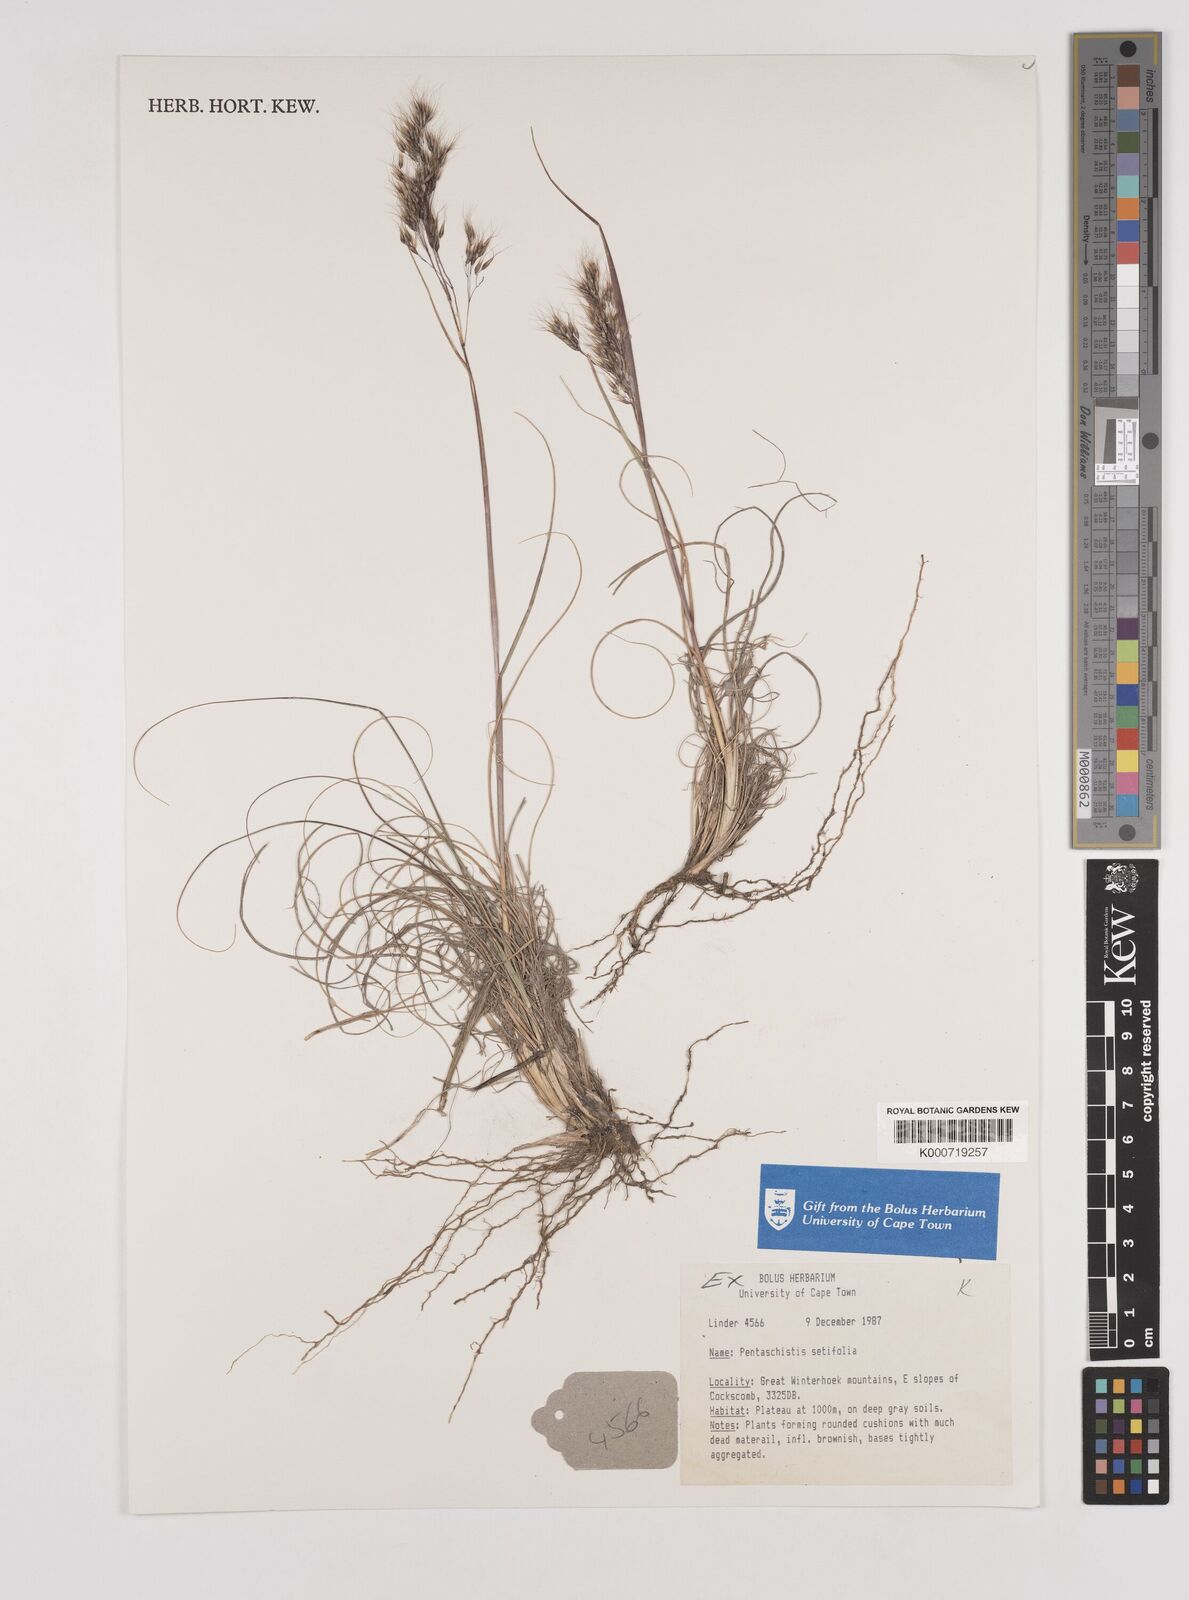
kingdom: Plantae
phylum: Tracheophyta
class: Liliopsida
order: Poales
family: Poaceae
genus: Pentameris
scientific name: Pentameris setifolia
